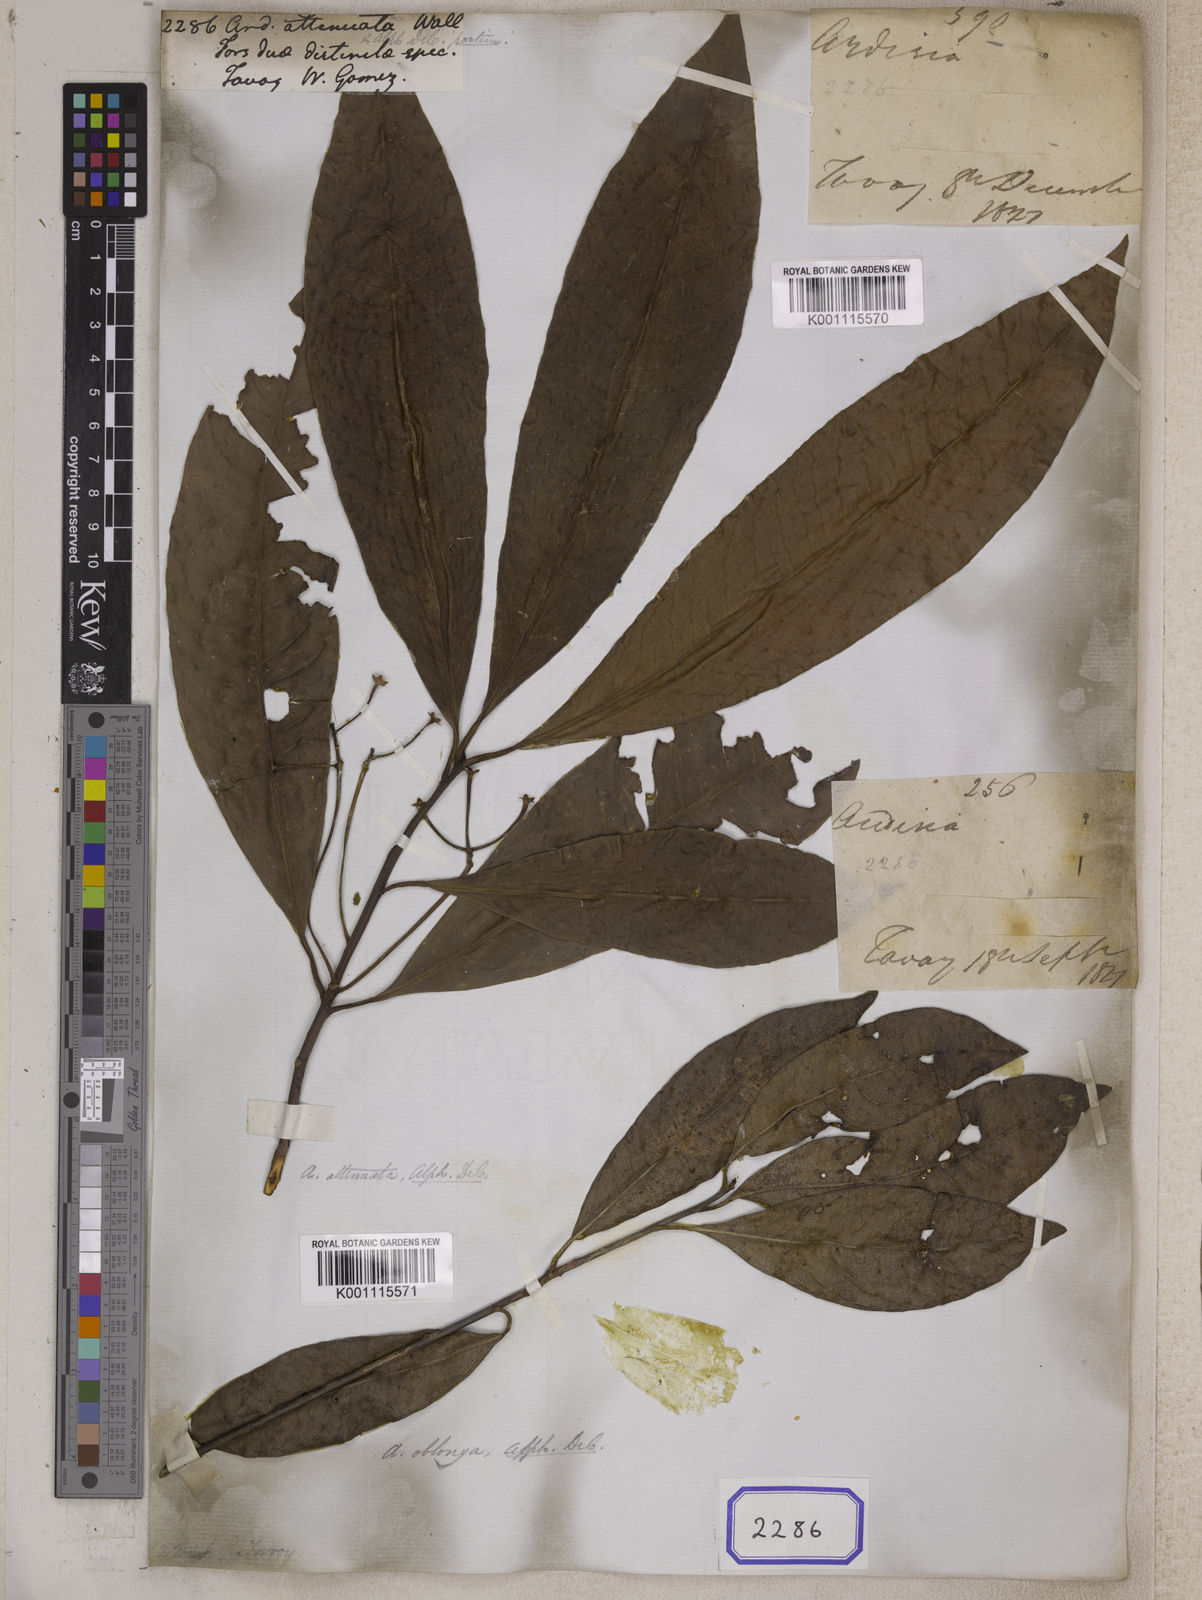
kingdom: Plantae
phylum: Tracheophyta
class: Magnoliopsida
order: Ericales
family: Primulaceae
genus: Ardisia
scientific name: Ardisia
